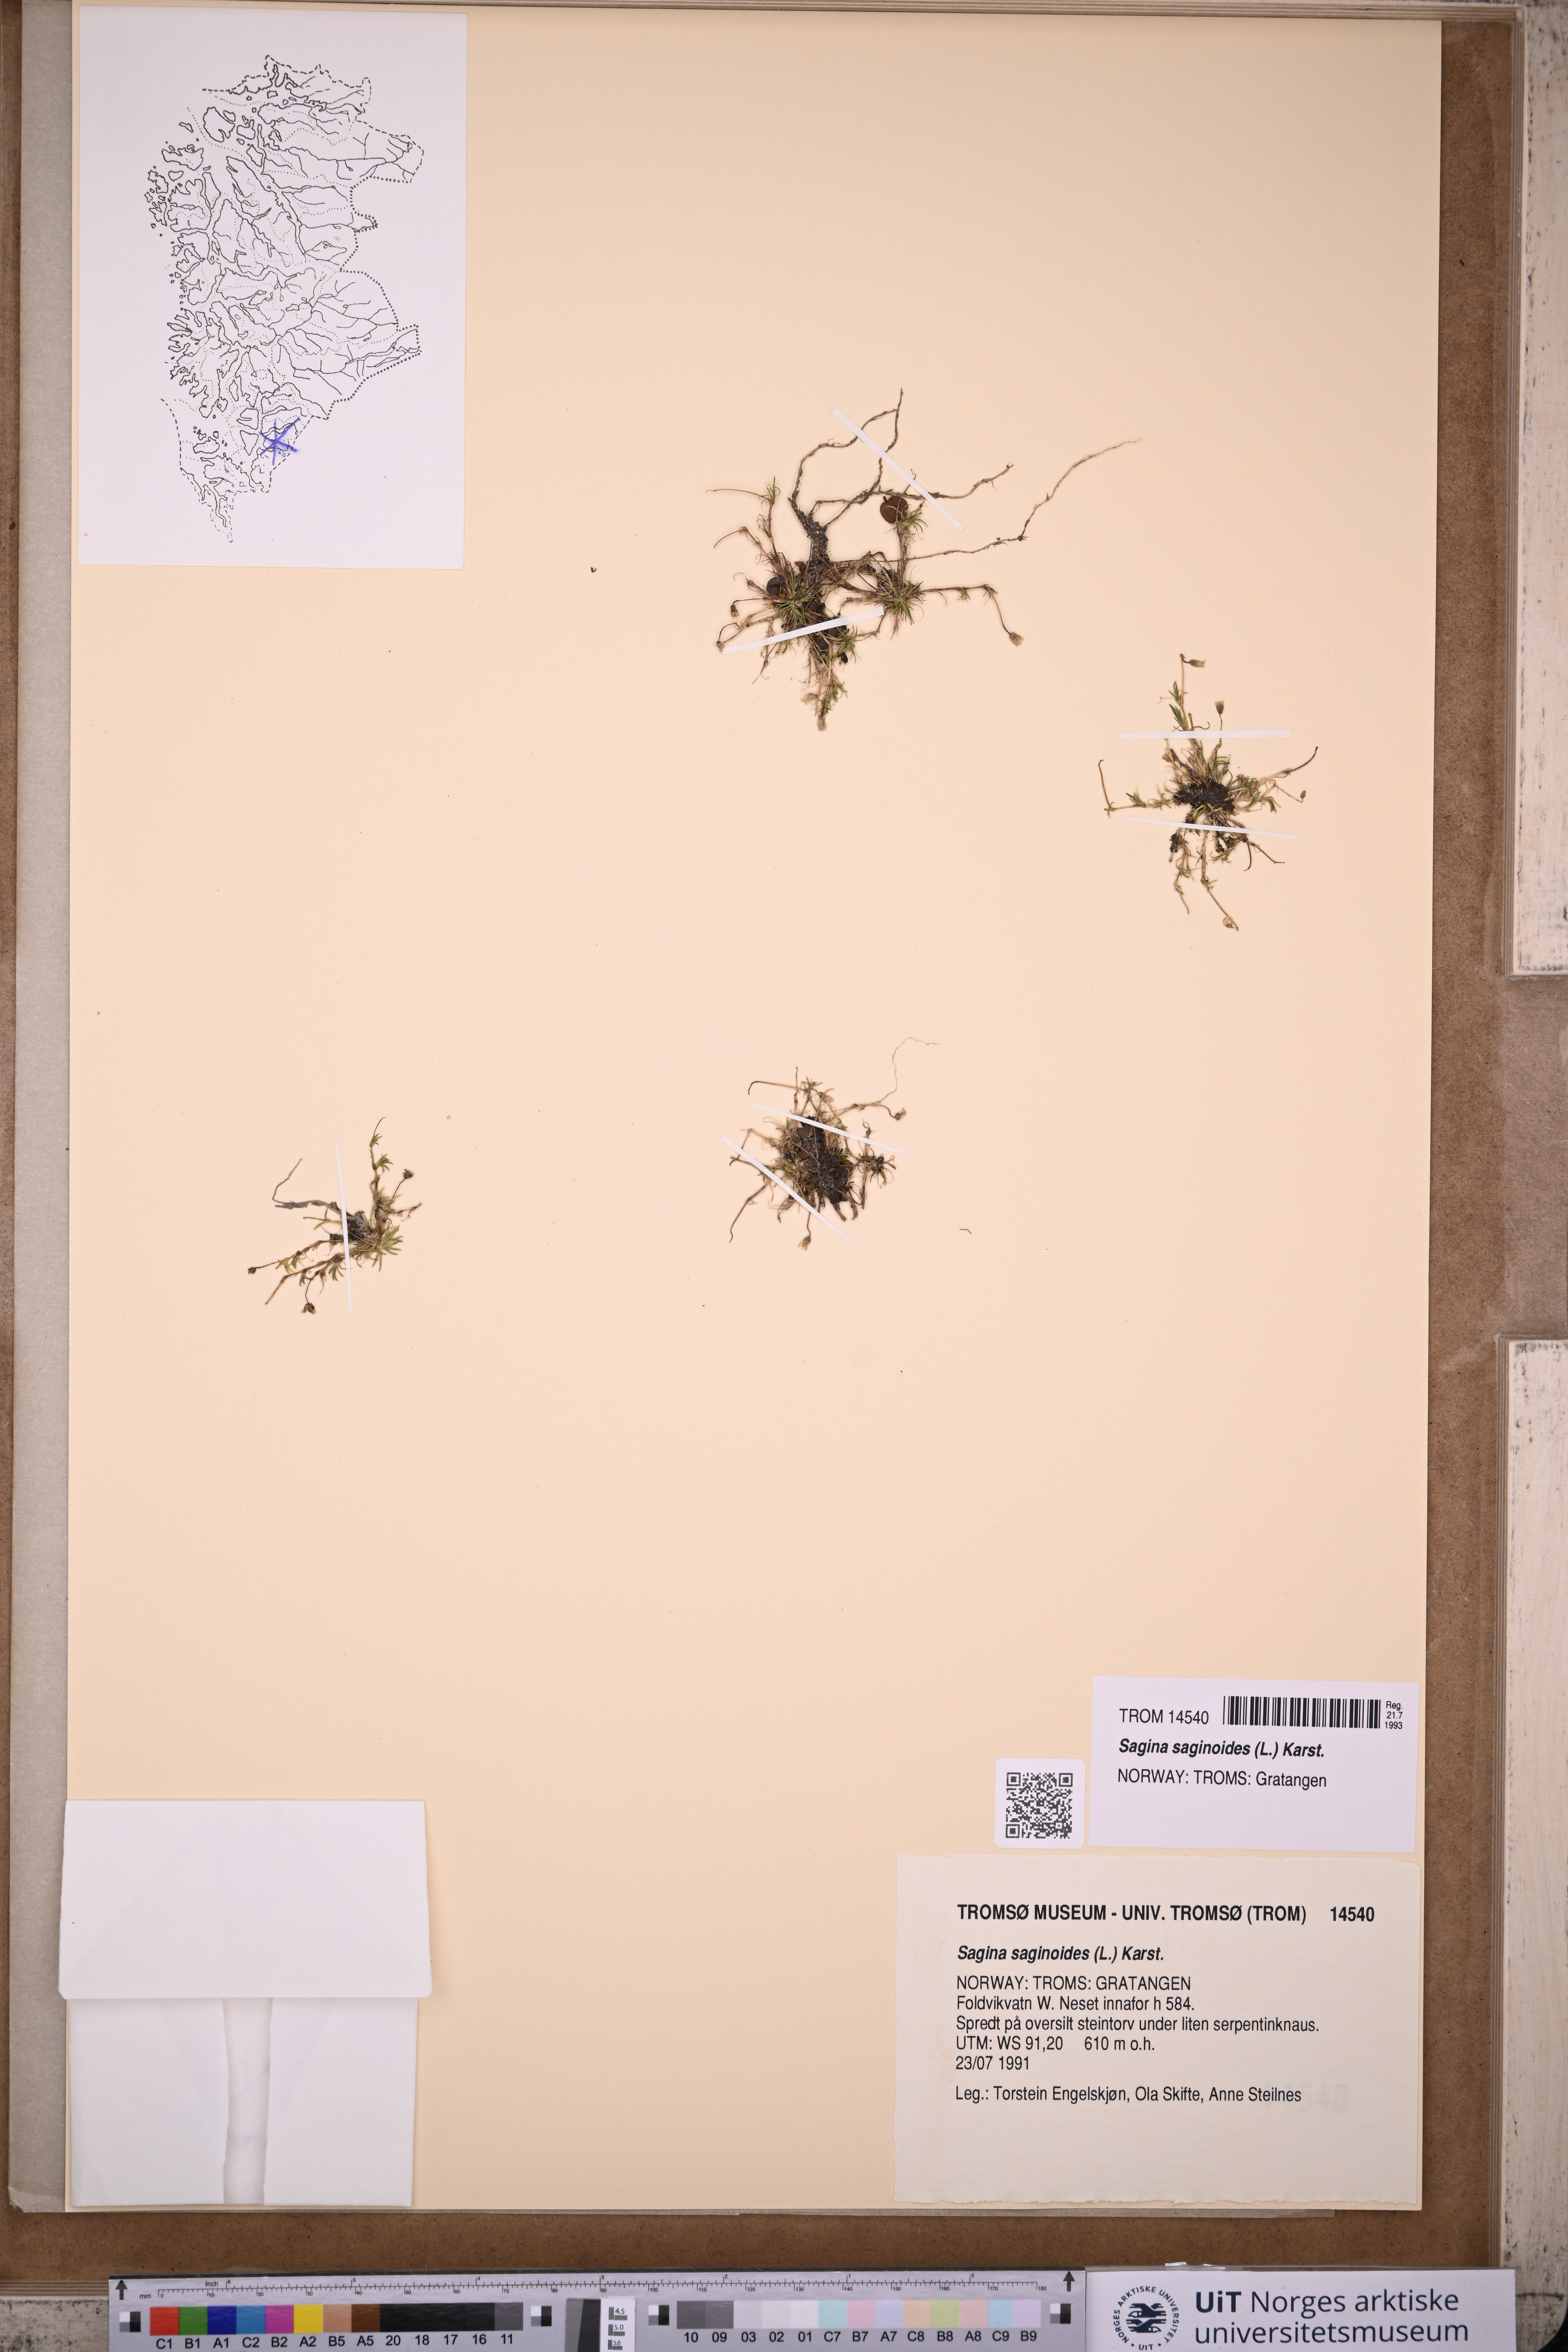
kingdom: Plantae
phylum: Tracheophyta
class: Magnoliopsida
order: Caryophyllales
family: Caryophyllaceae
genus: Sagina
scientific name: Sagina saginoides
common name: Alpine pearlwort
